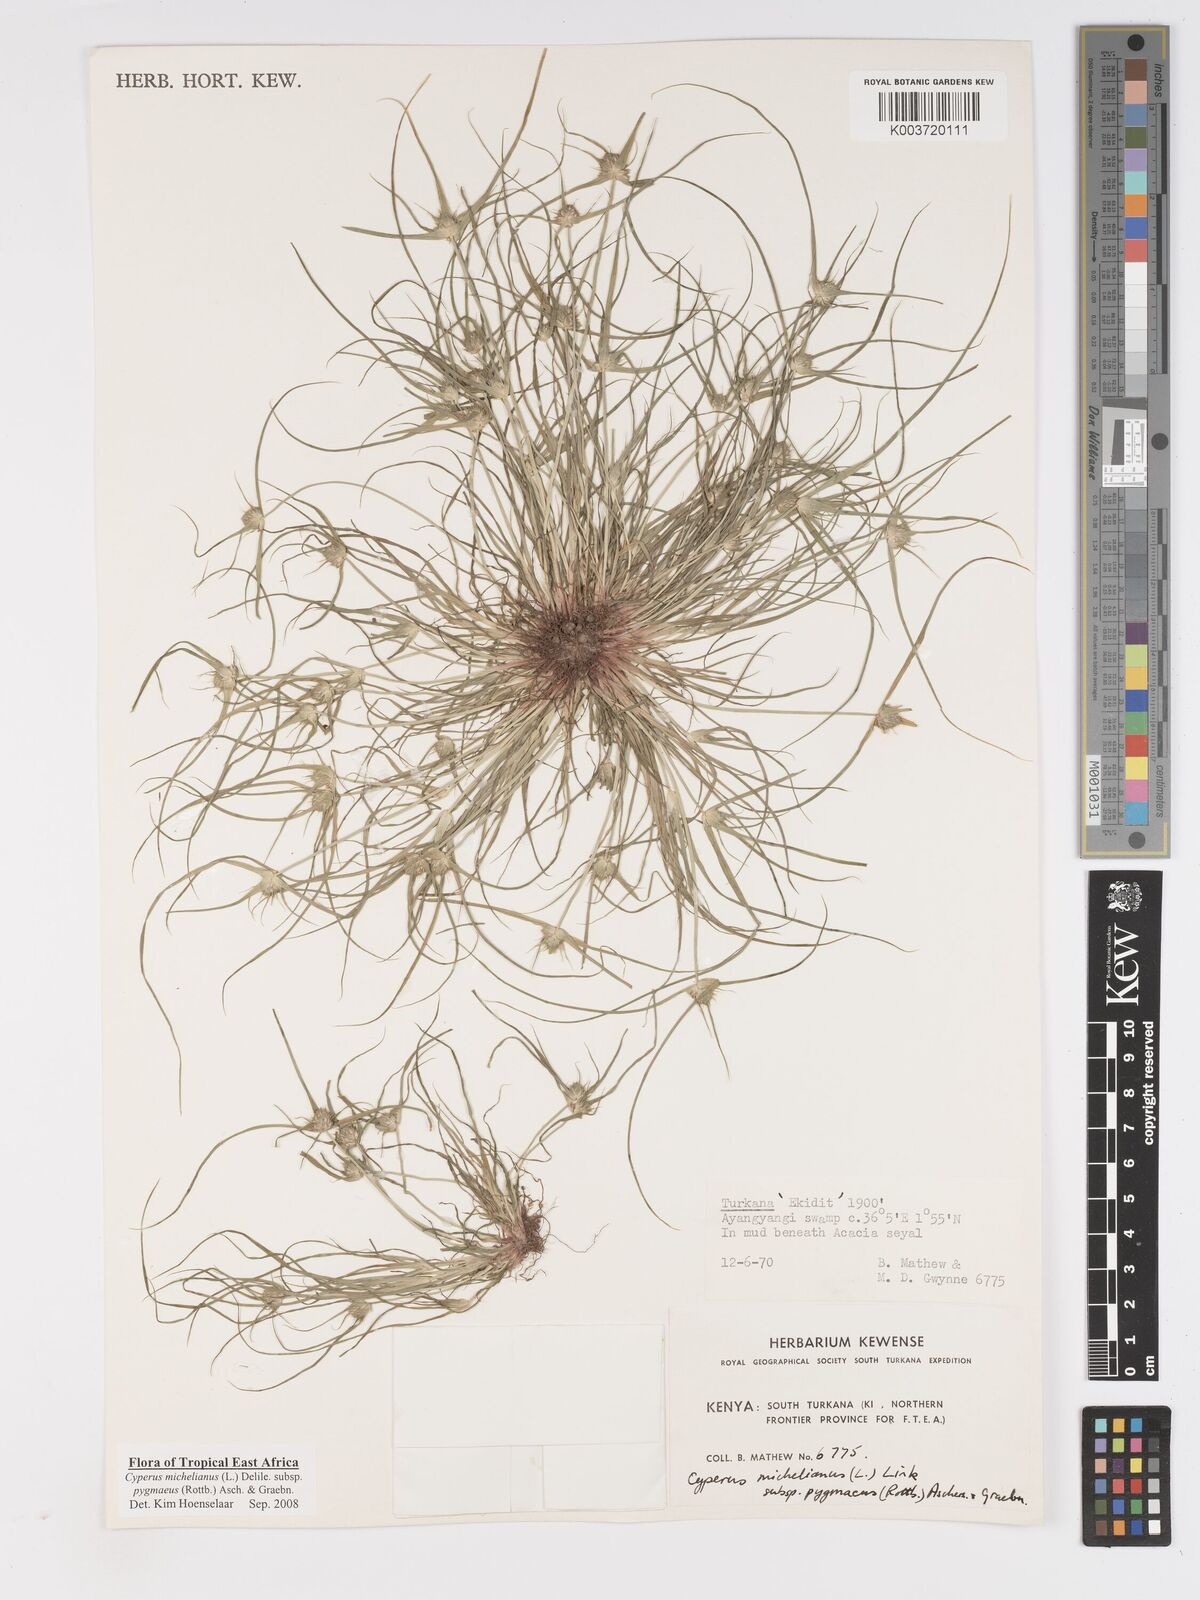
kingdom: Plantae
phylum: Tracheophyta
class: Liliopsida
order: Poales
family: Cyperaceae
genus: Cyperus
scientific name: Cyperus michelianus
